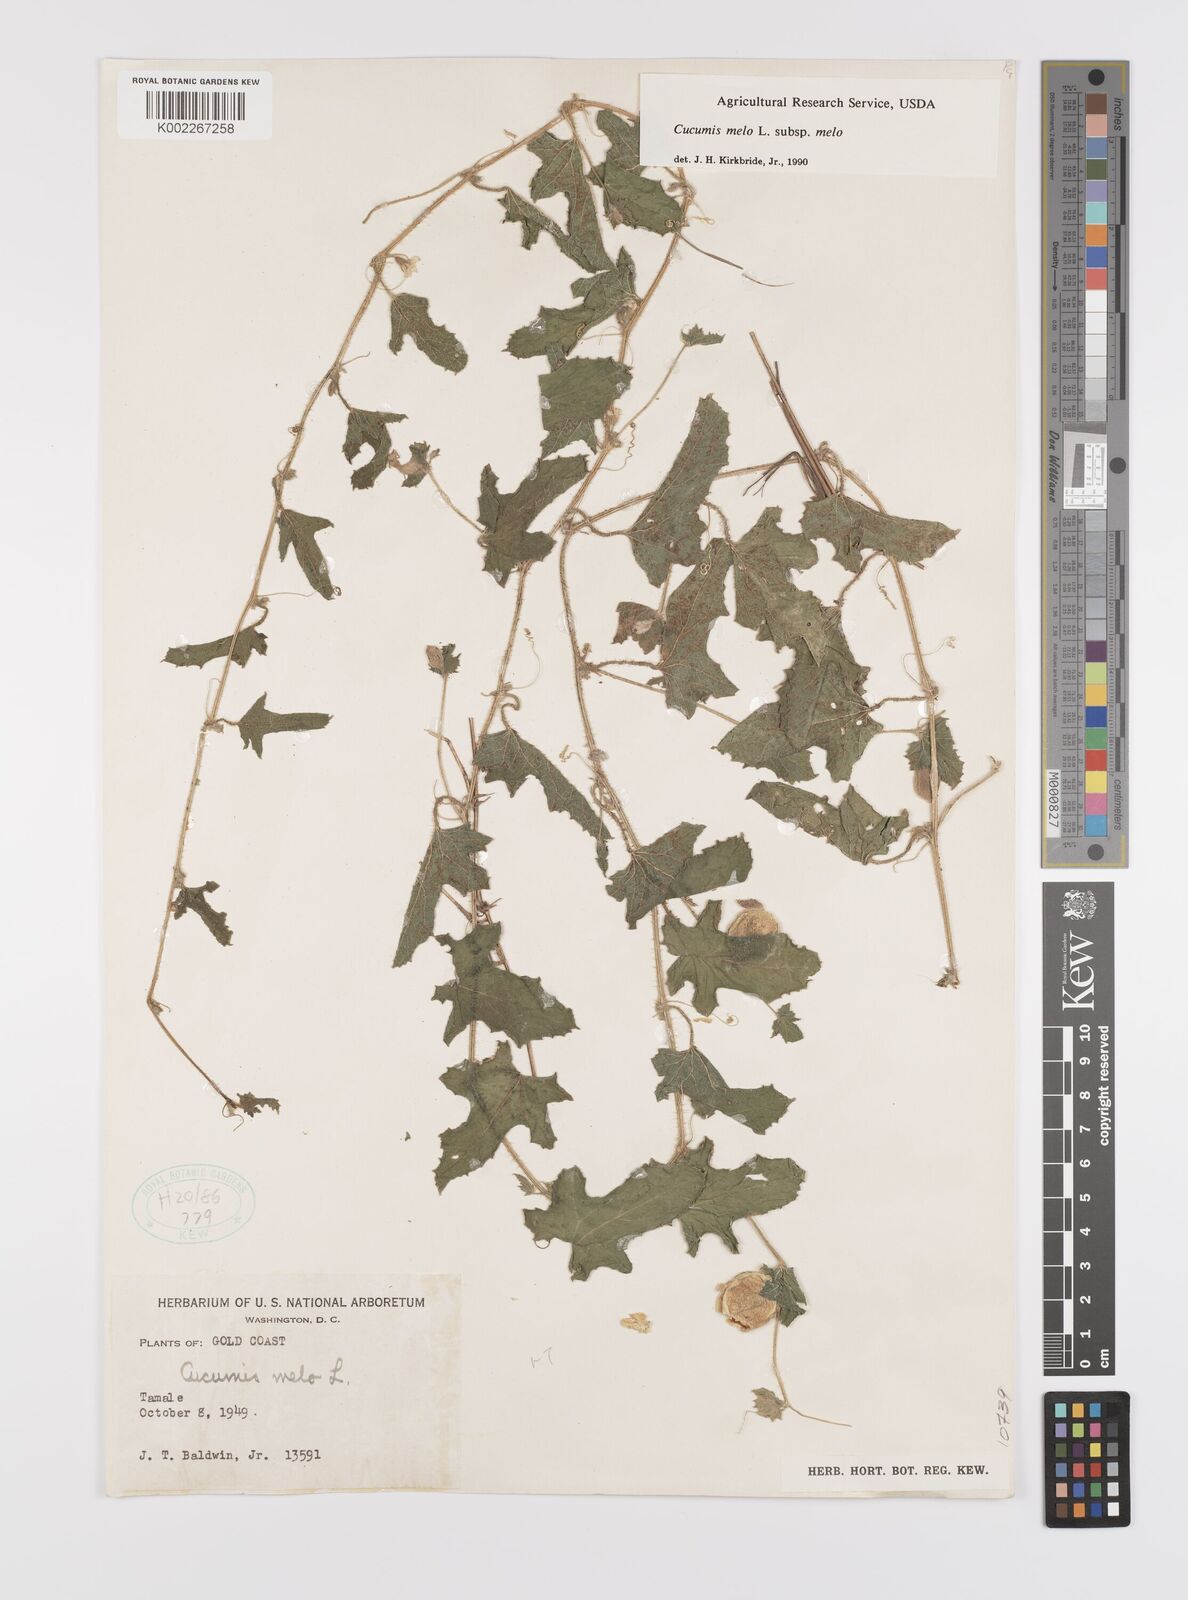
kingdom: Plantae
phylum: Tracheophyta
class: Magnoliopsida
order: Cucurbitales
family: Cucurbitaceae
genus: Cucumis
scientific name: Cucumis melo
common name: Melon
